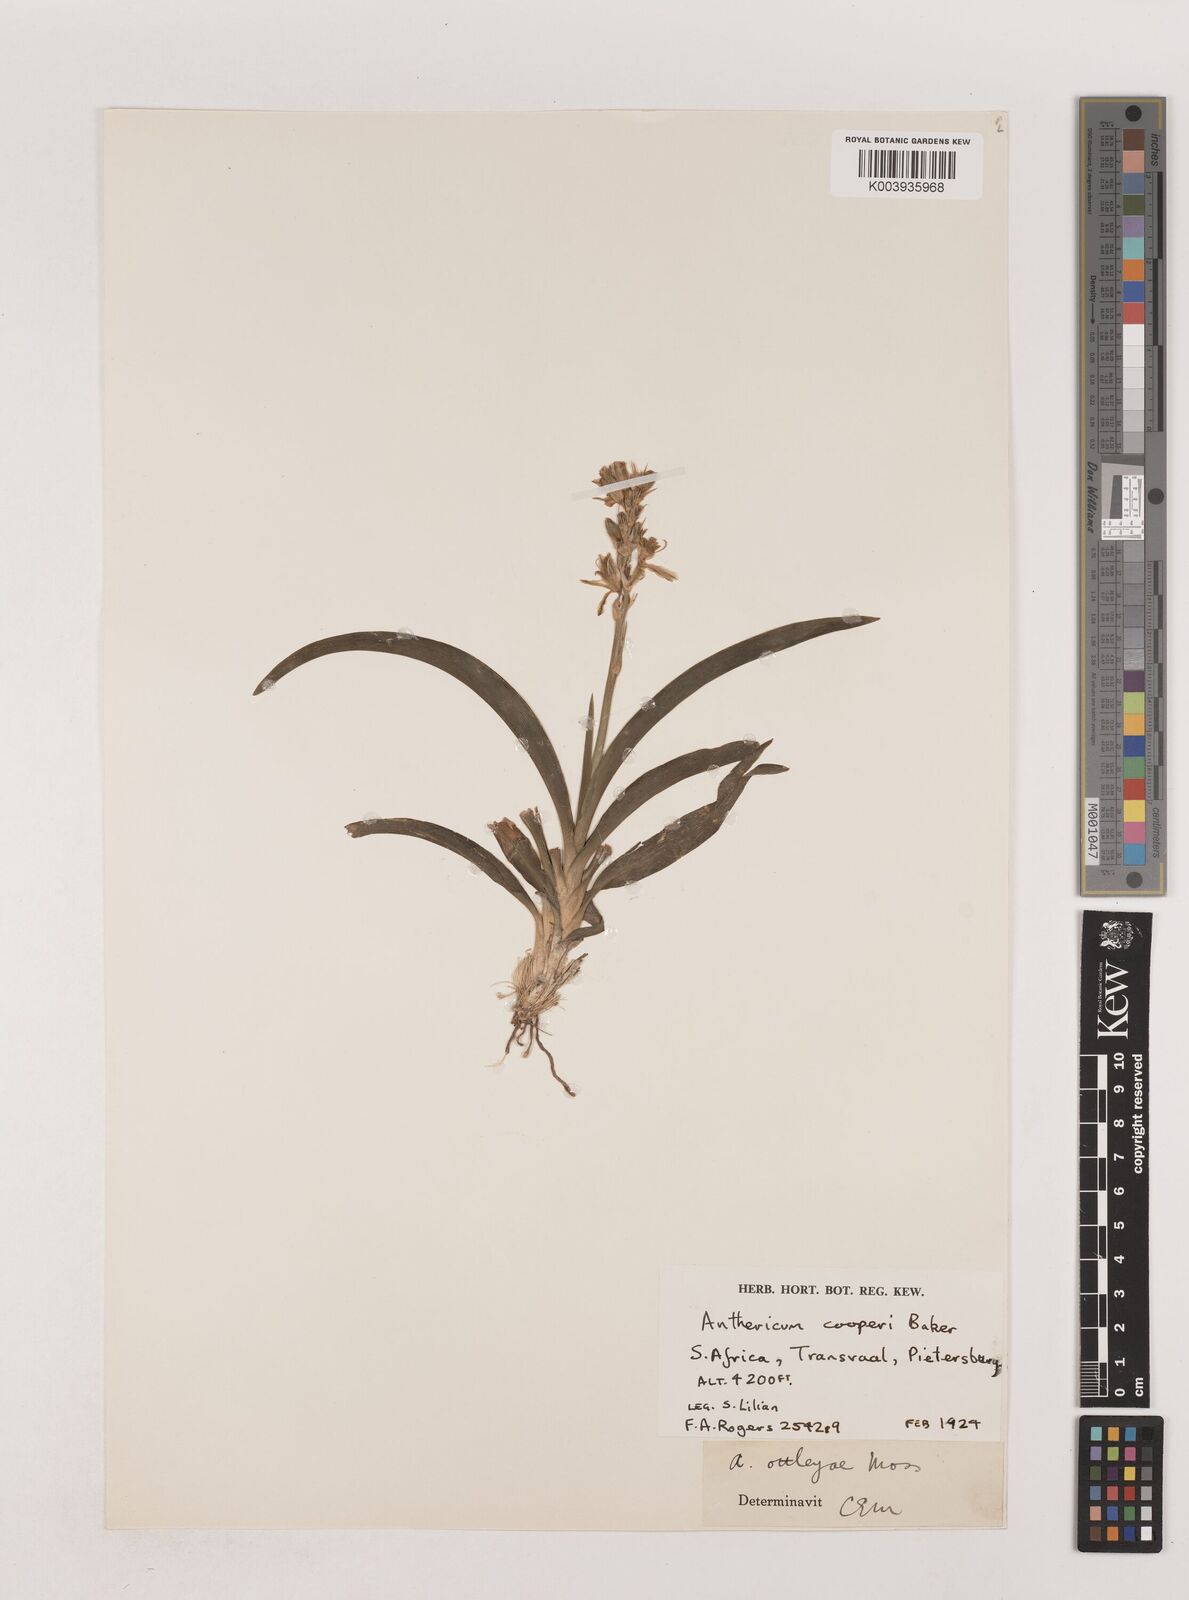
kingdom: Plantae
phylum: Tracheophyta
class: Liliopsida
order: Asparagales
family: Asparagaceae
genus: Chlorophytum
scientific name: Chlorophytum cooperi
